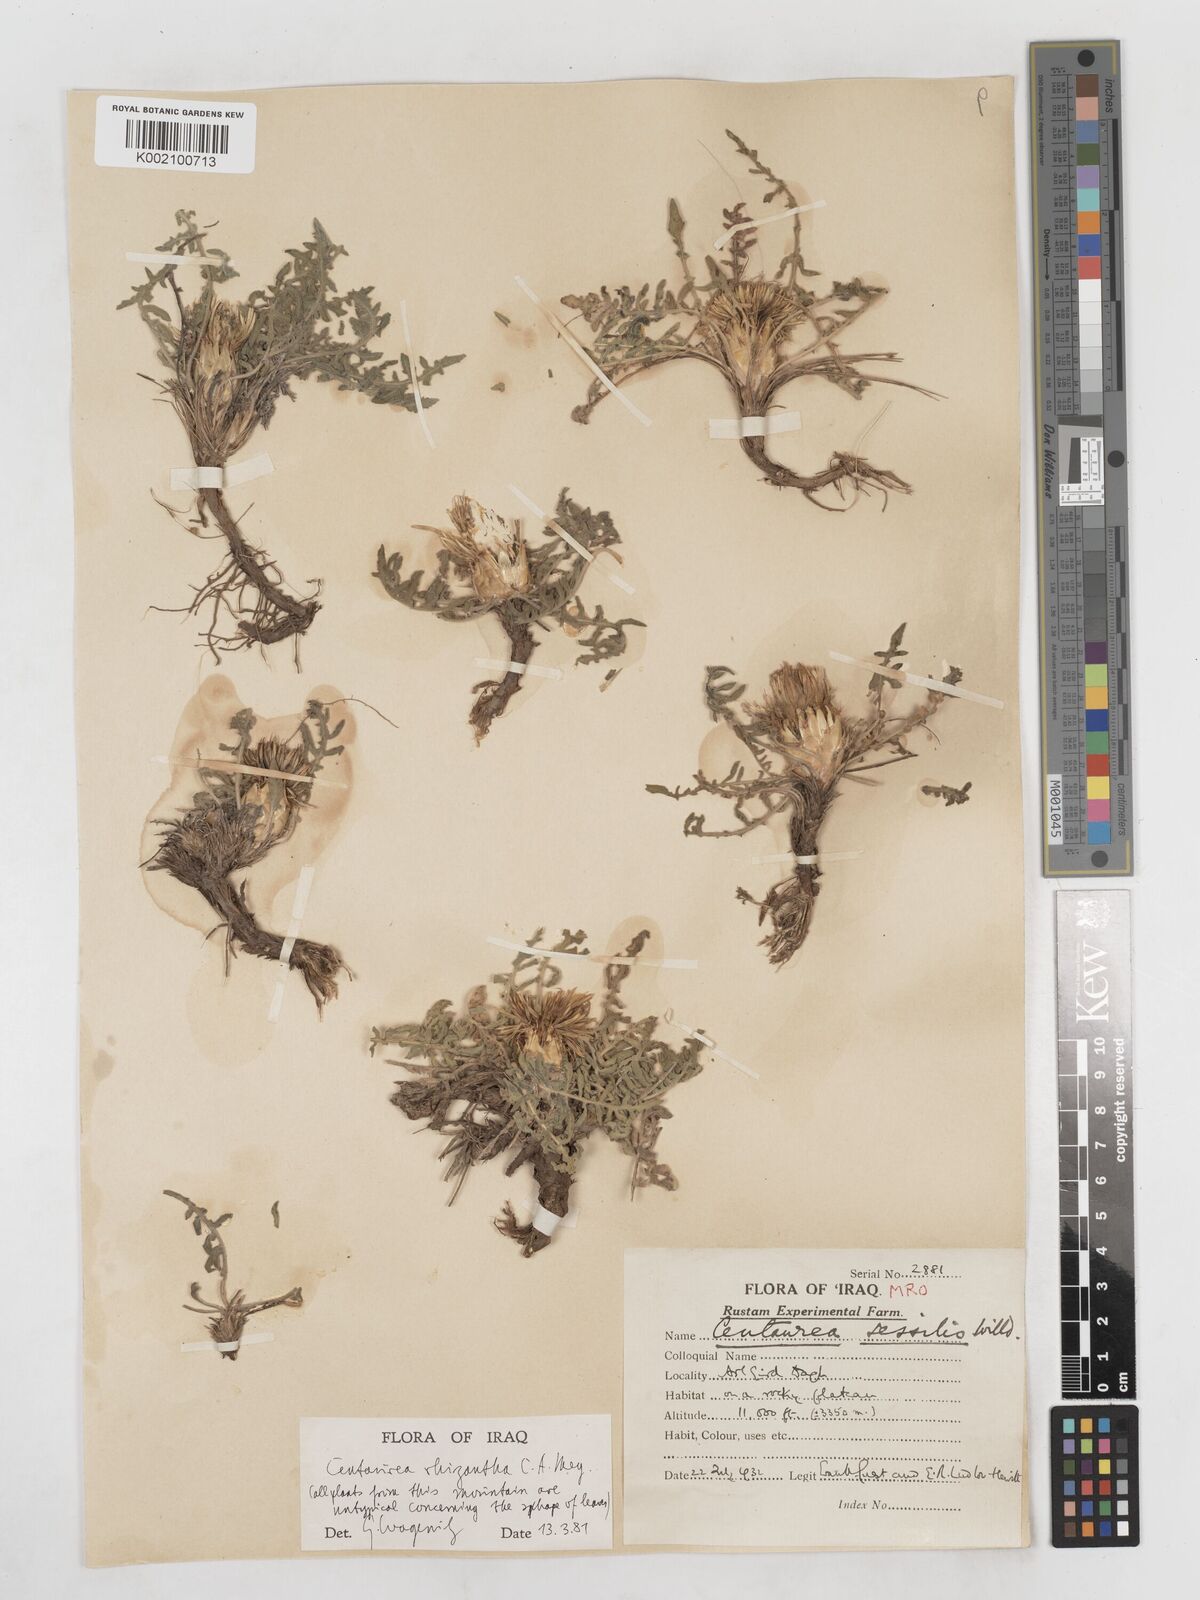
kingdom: Plantae
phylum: Tracheophyta
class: Magnoliopsida
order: Asterales
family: Asteraceae
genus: Centaurea
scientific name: Centaurea rhizantha
